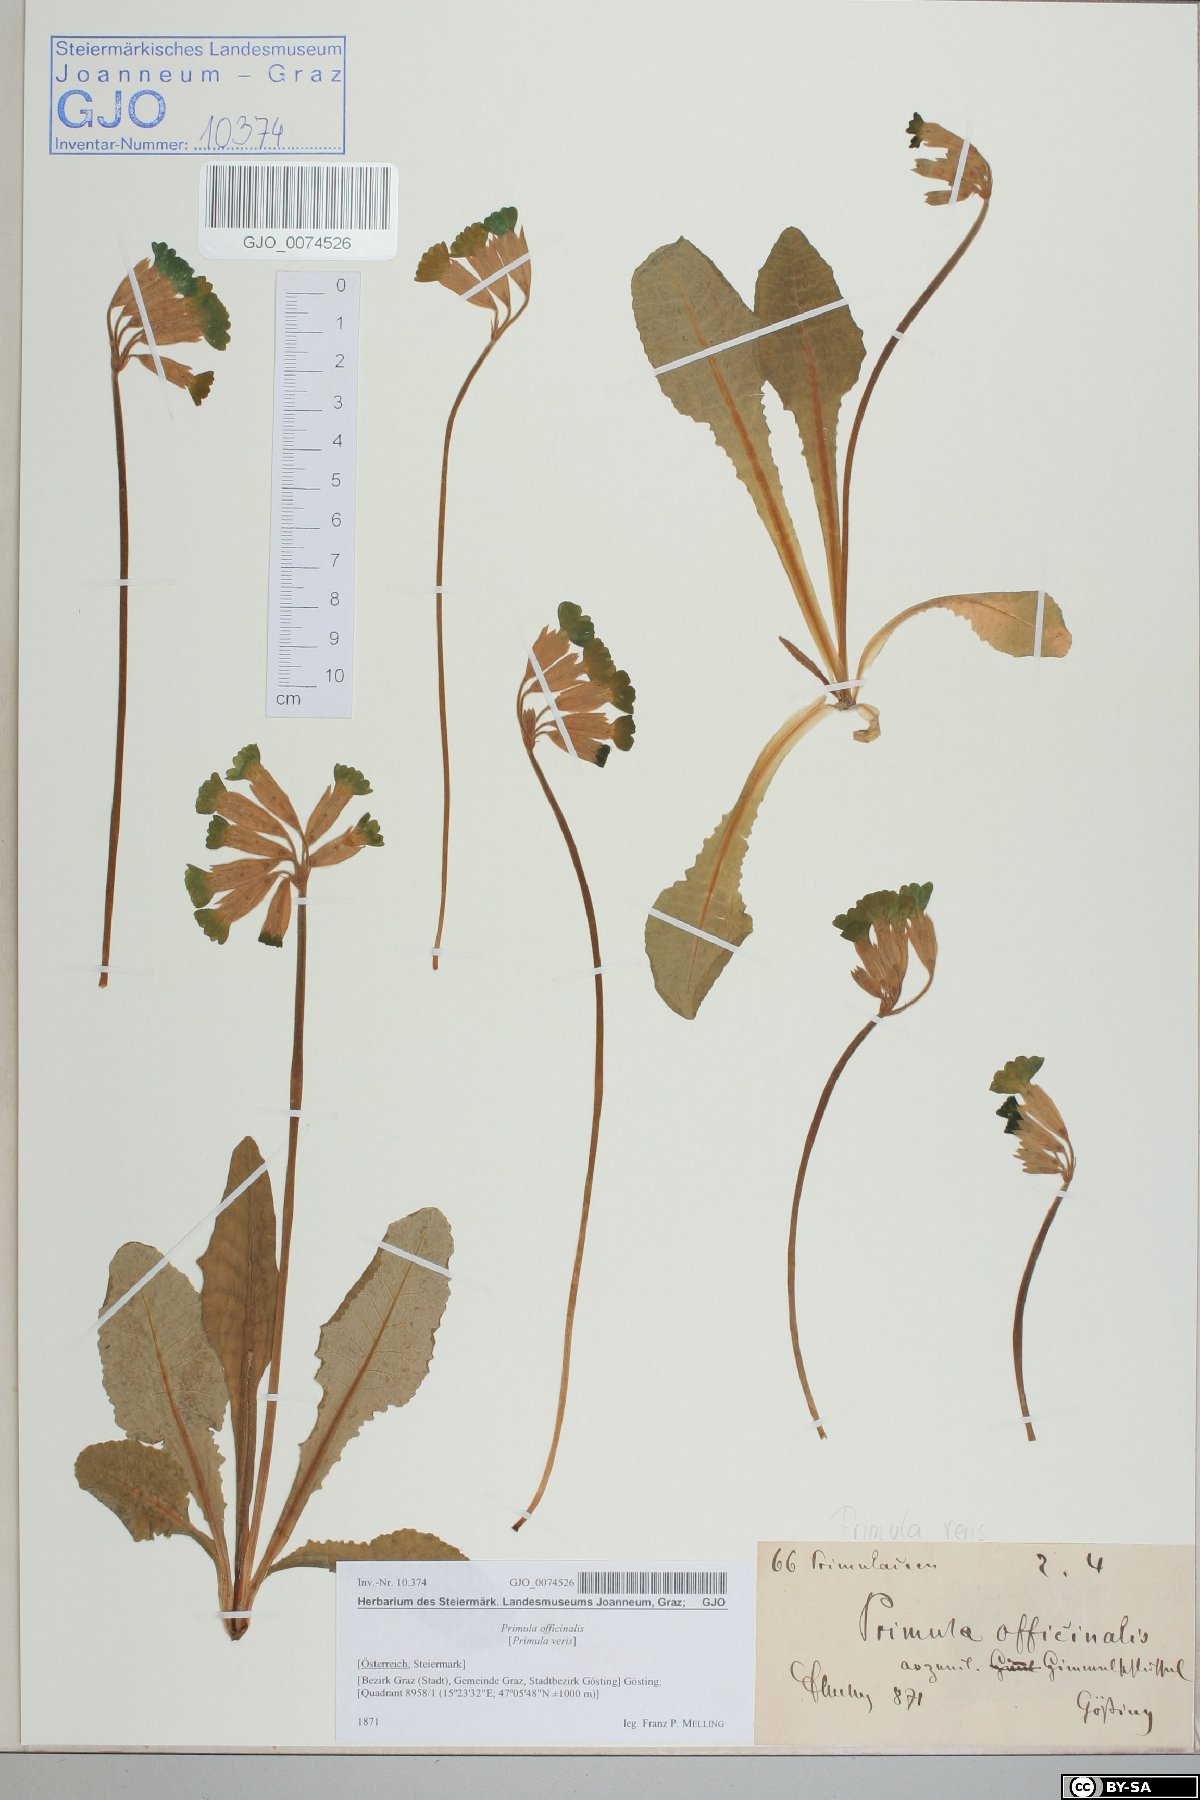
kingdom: Plantae
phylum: Tracheophyta
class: Magnoliopsida
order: Ericales
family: Primulaceae
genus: Primula
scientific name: Primula veris
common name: Cowslip
